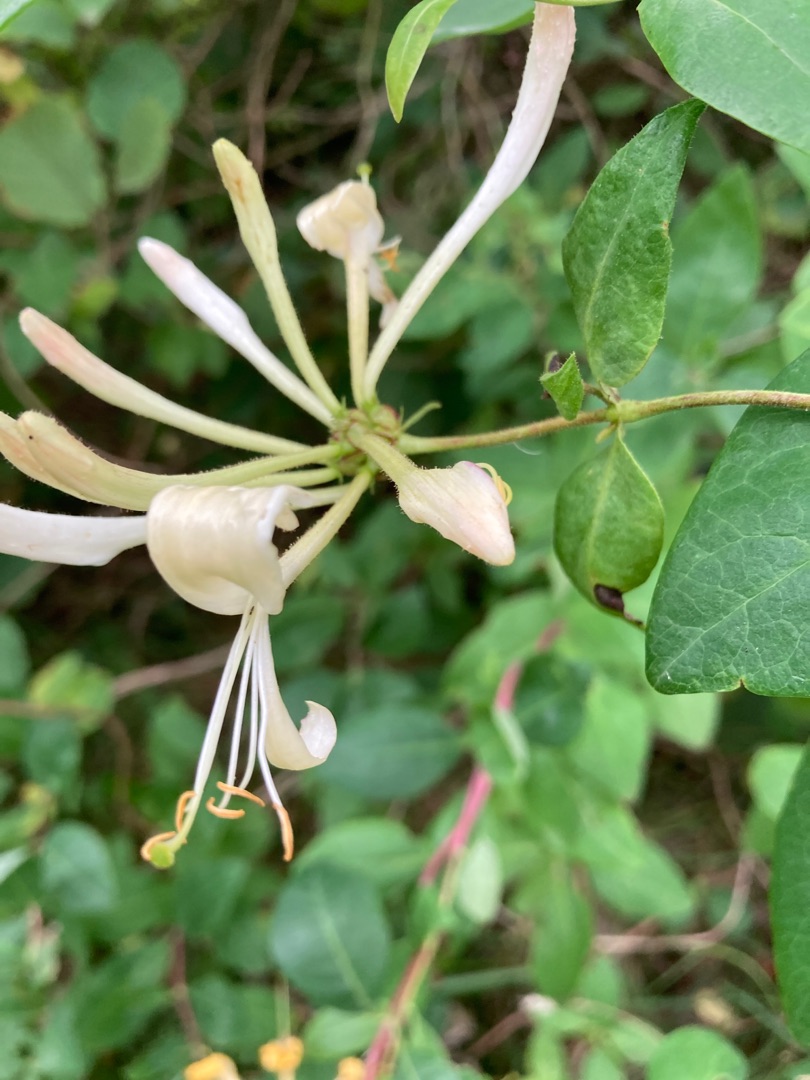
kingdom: Plantae
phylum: Tracheophyta
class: Magnoliopsida
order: Dipsacales
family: Caprifoliaceae
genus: Lonicera
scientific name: Lonicera periclymenum
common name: Almindelig gedeblad
